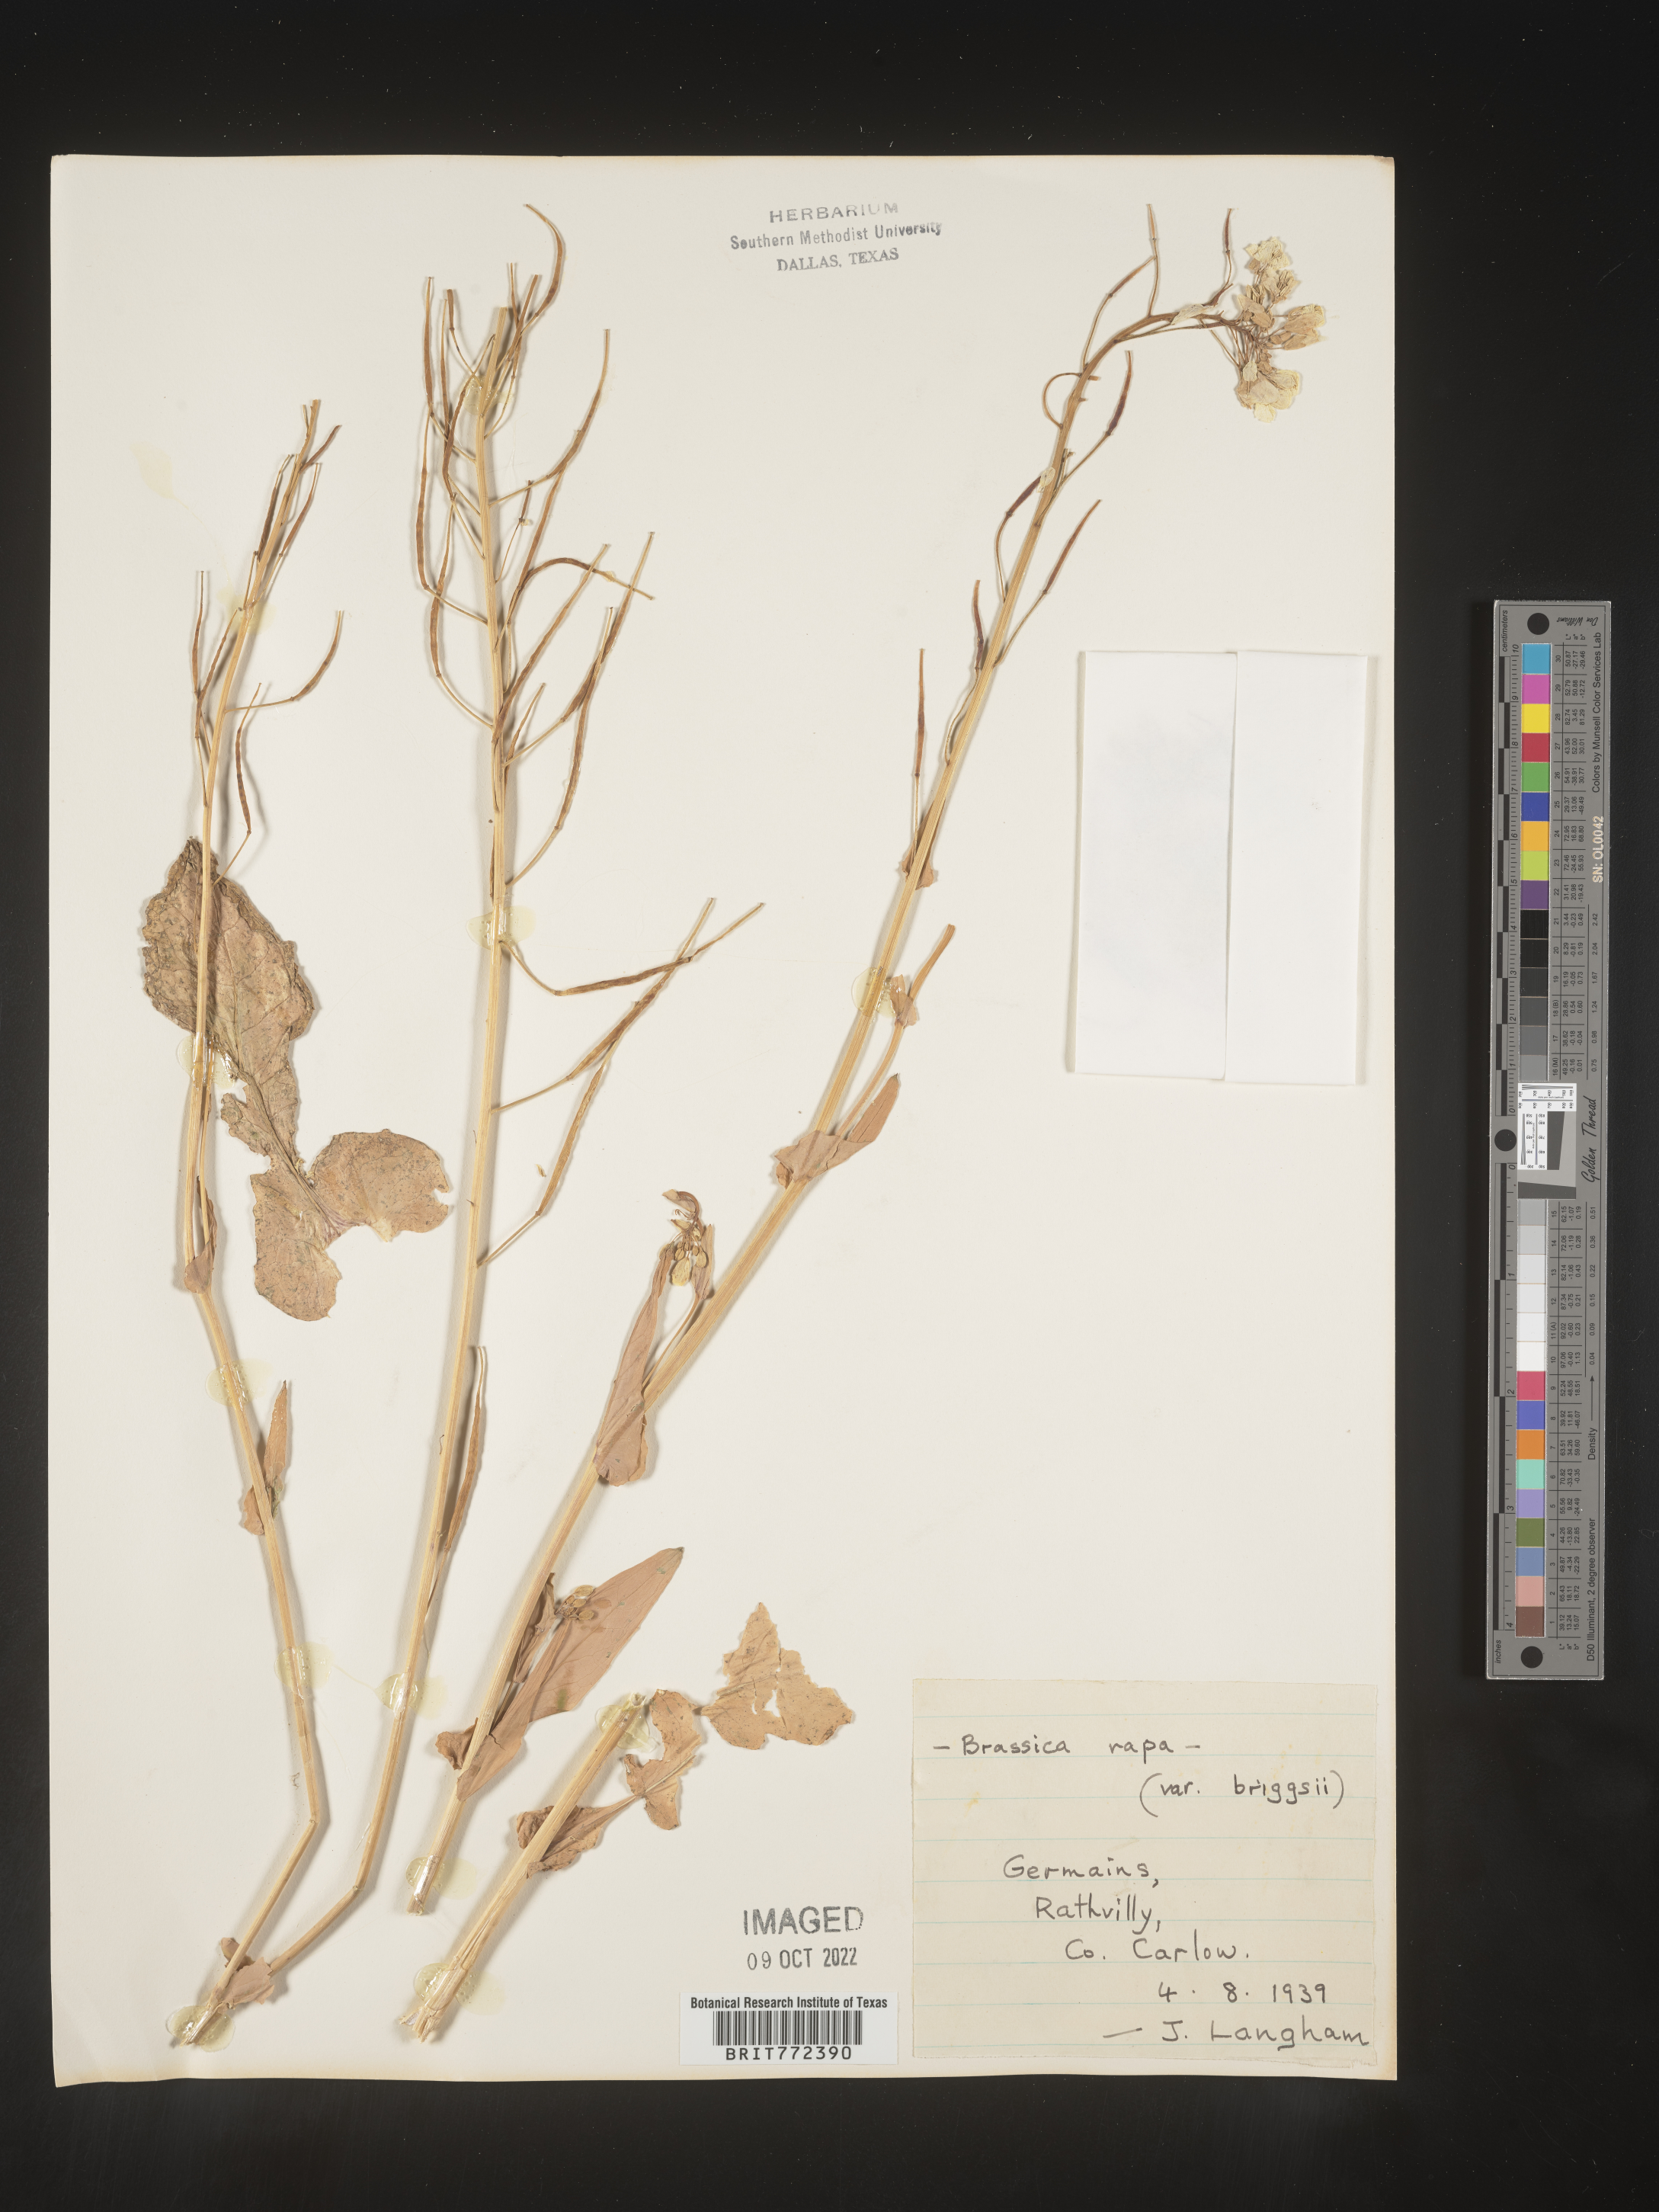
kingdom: Plantae
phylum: Tracheophyta
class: Magnoliopsida
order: Brassicales
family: Brassicaceae
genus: Brassica
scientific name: Brassica
